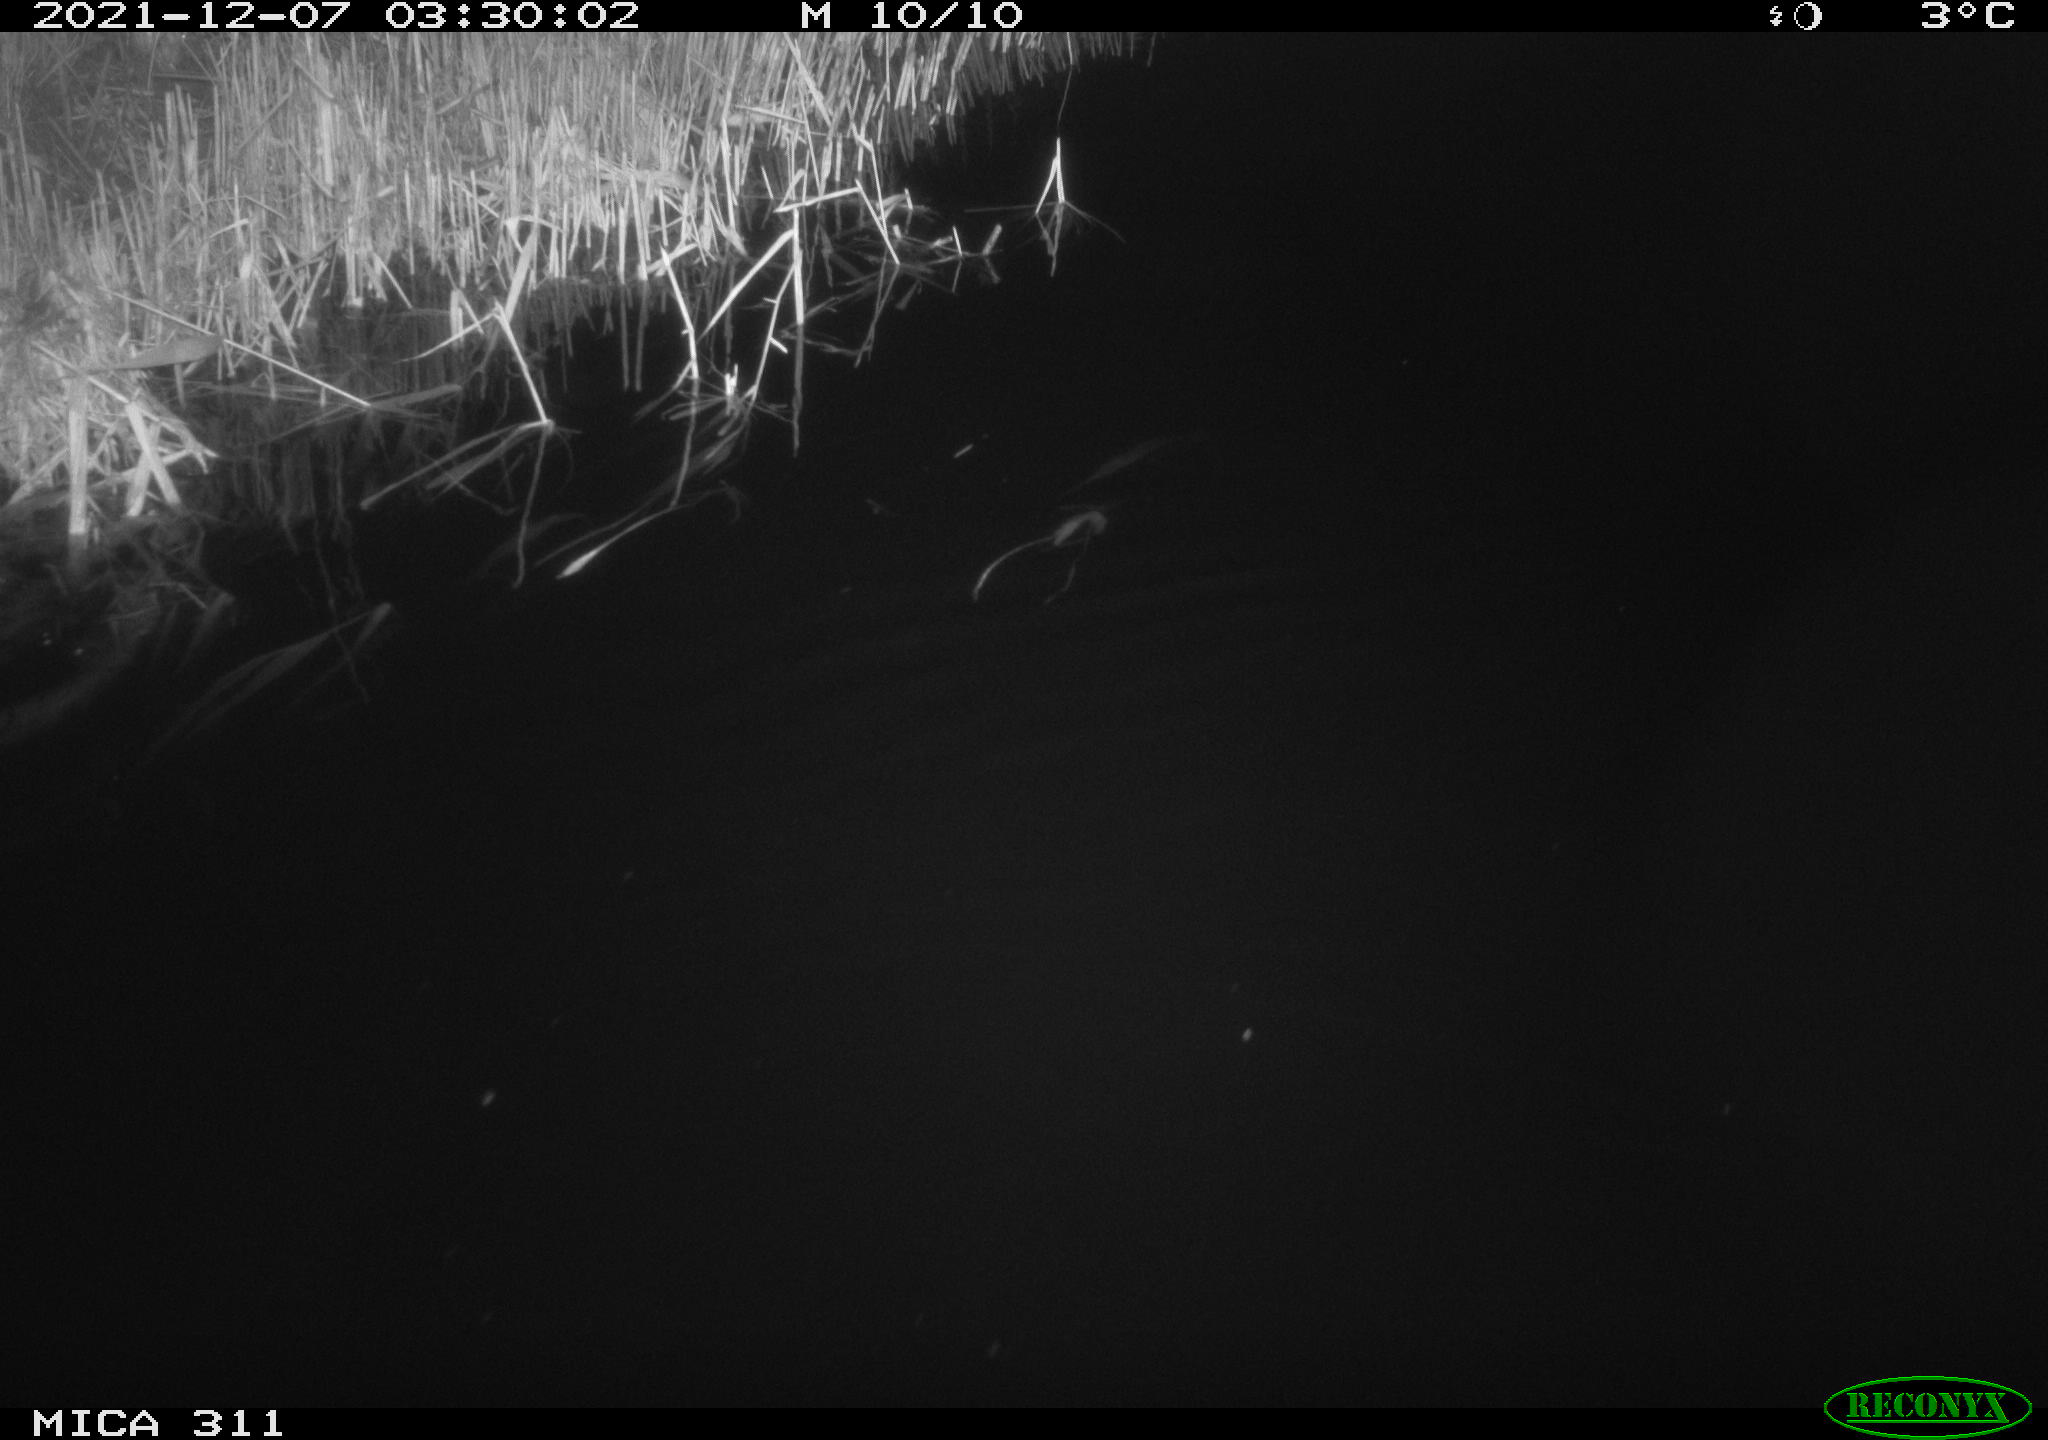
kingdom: Animalia
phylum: Chordata
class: Mammalia
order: Rodentia
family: Muridae
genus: Rattus
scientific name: Rattus norvegicus
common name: Brown rat
